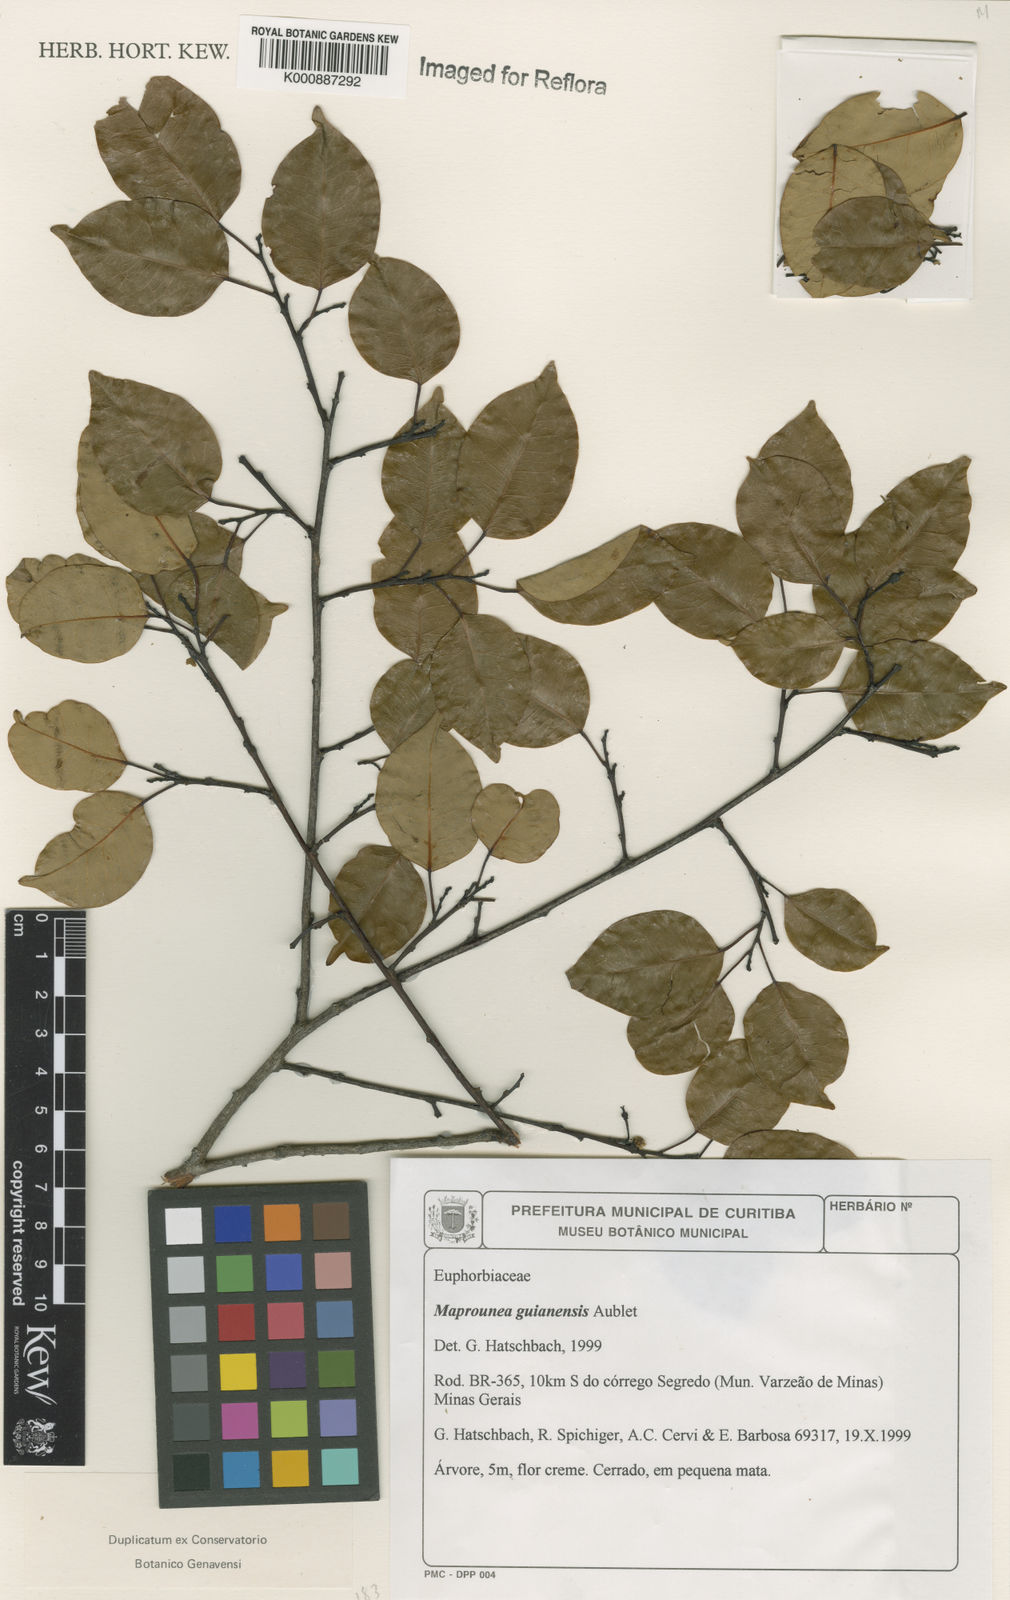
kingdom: Plantae
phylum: Tracheophyta
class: Magnoliopsida
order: Malpighiales
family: Euphorbiaceae
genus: Maprounea
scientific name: Maprounea guianensis
